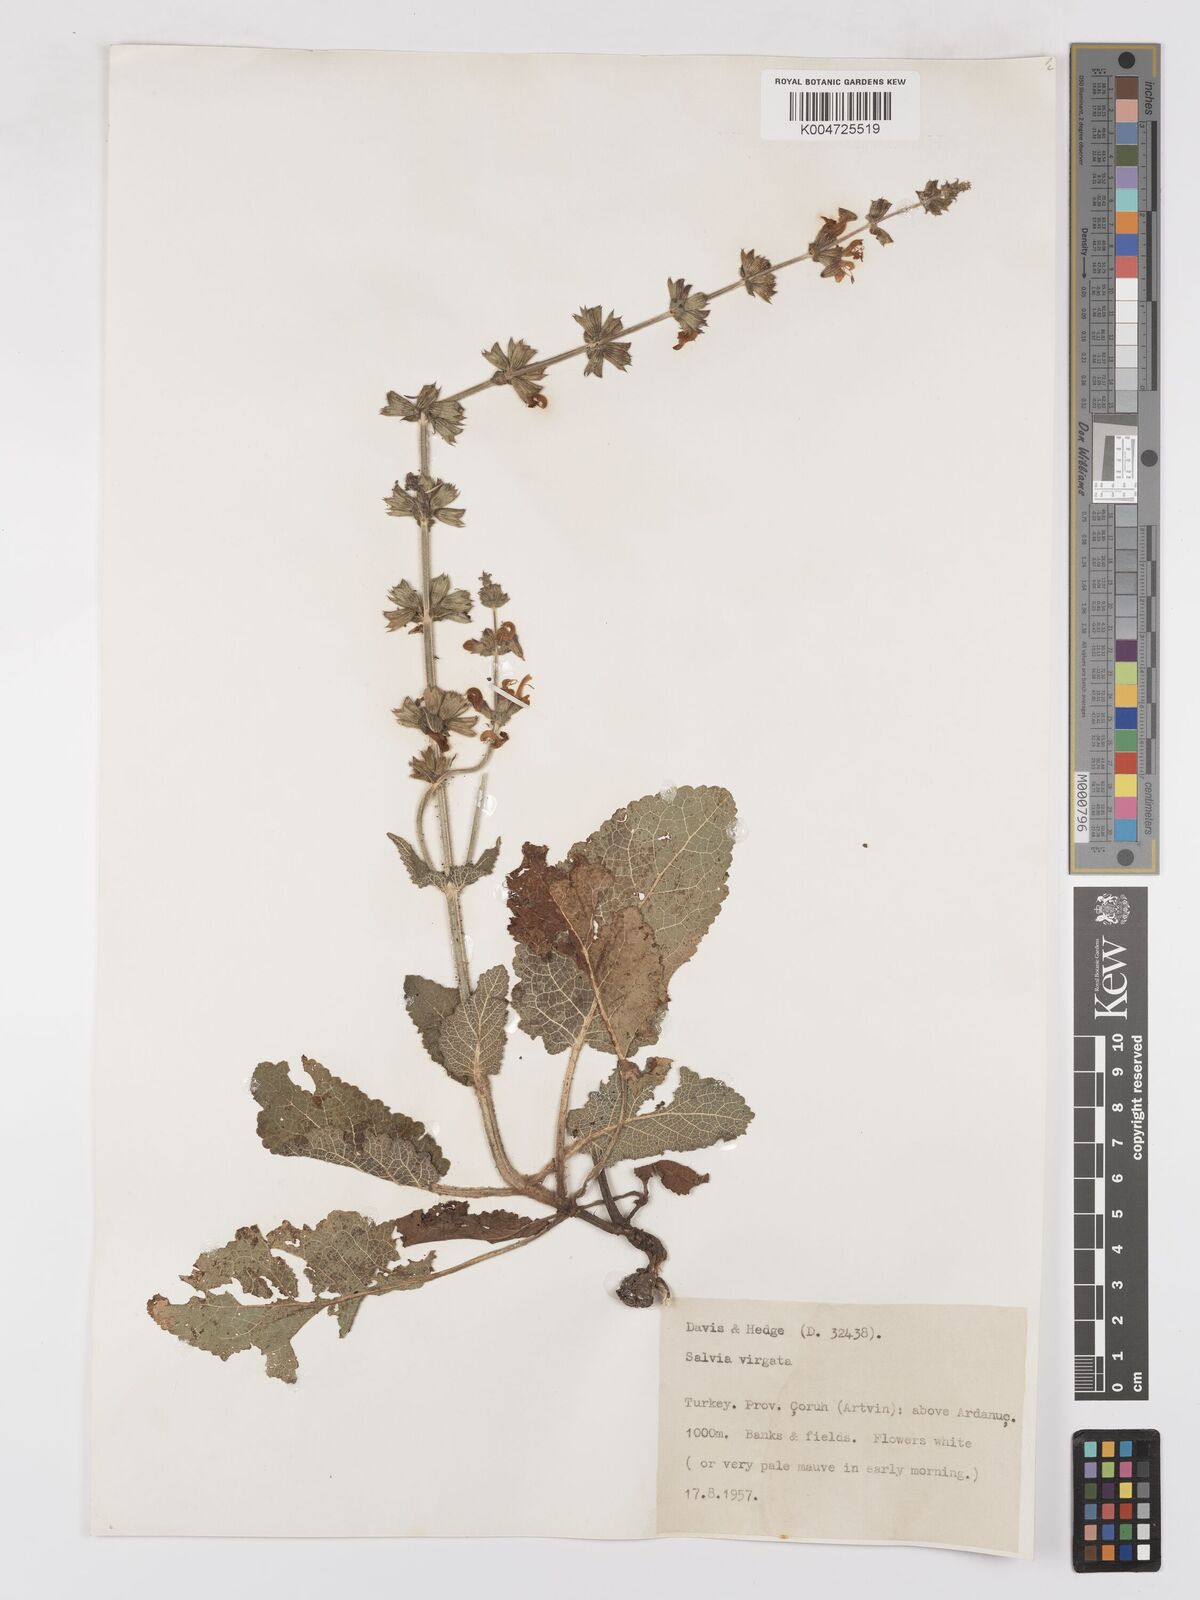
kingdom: Plantae
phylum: Tracheophyta
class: Magnoliopsida
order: Lamiales
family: Lamiaceae
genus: Salvia
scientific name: Salvia
